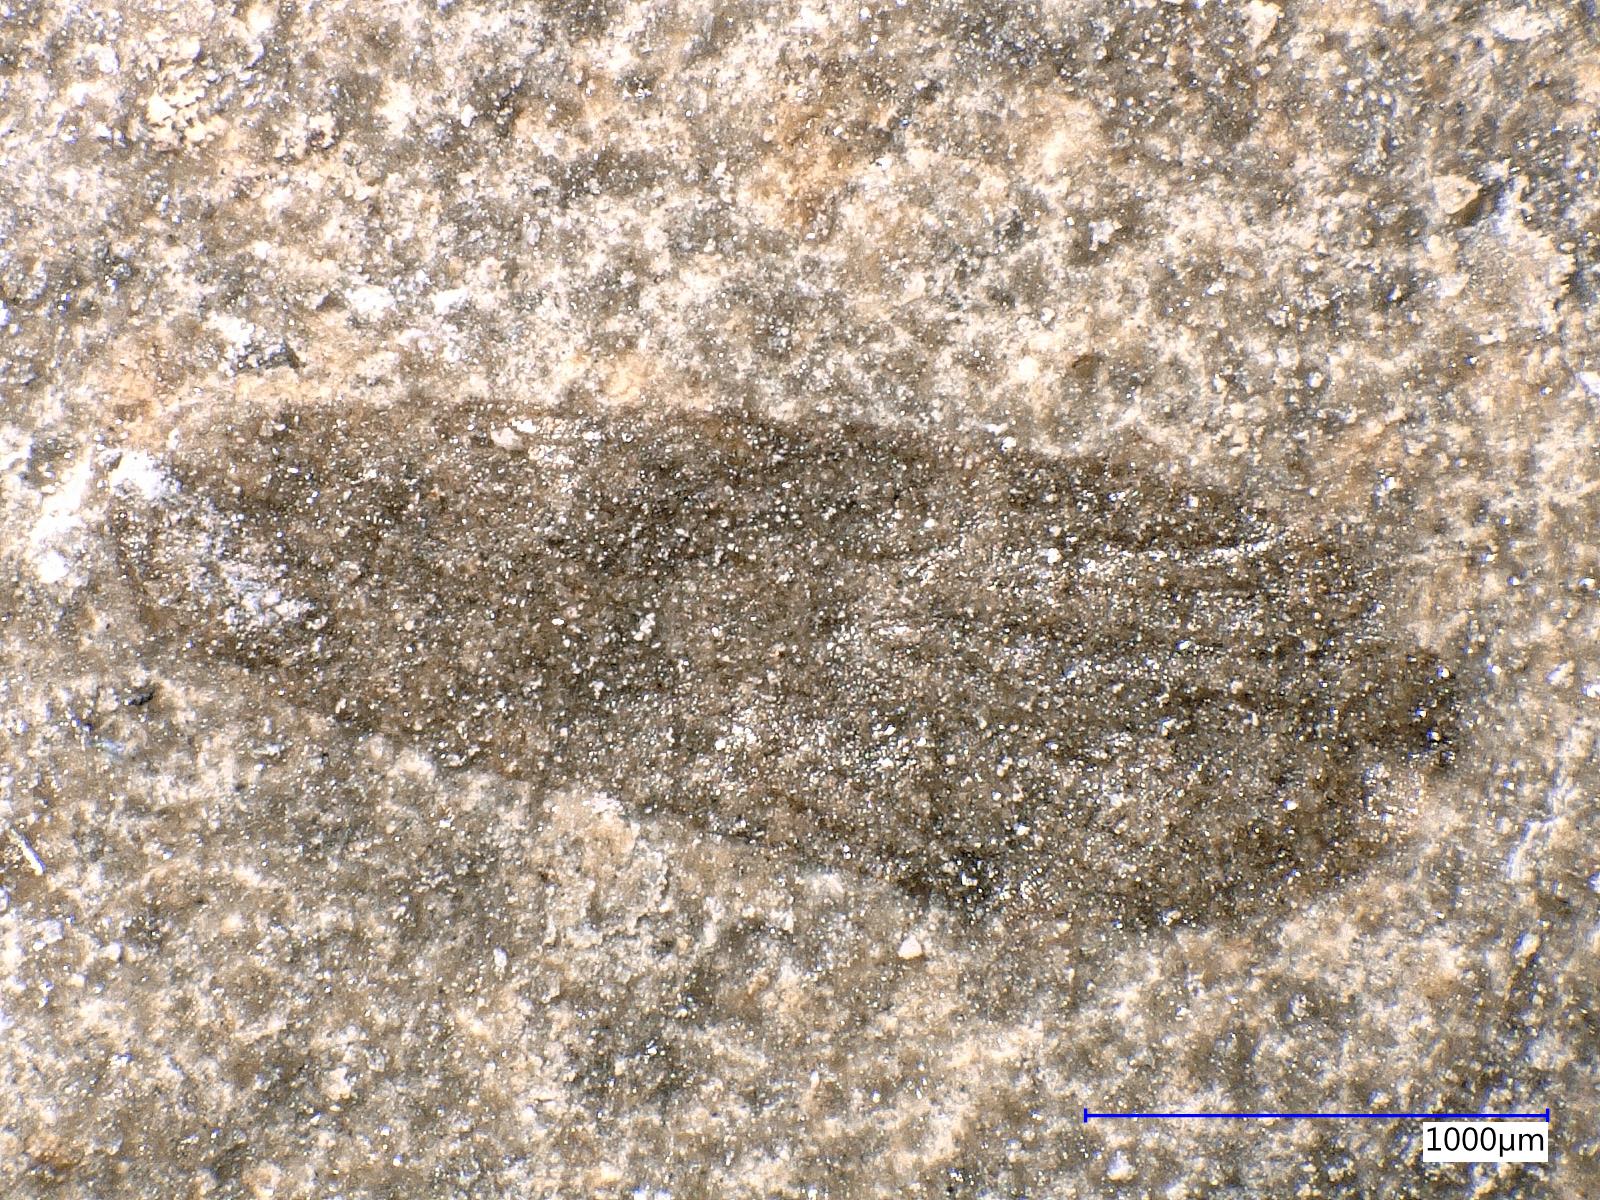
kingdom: Animalia
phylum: Arthropoda
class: Insecta
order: Trichoptera
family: Necrotauliidae
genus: Necrotaulius
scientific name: Necrotaulius Orthophlebia parvula
